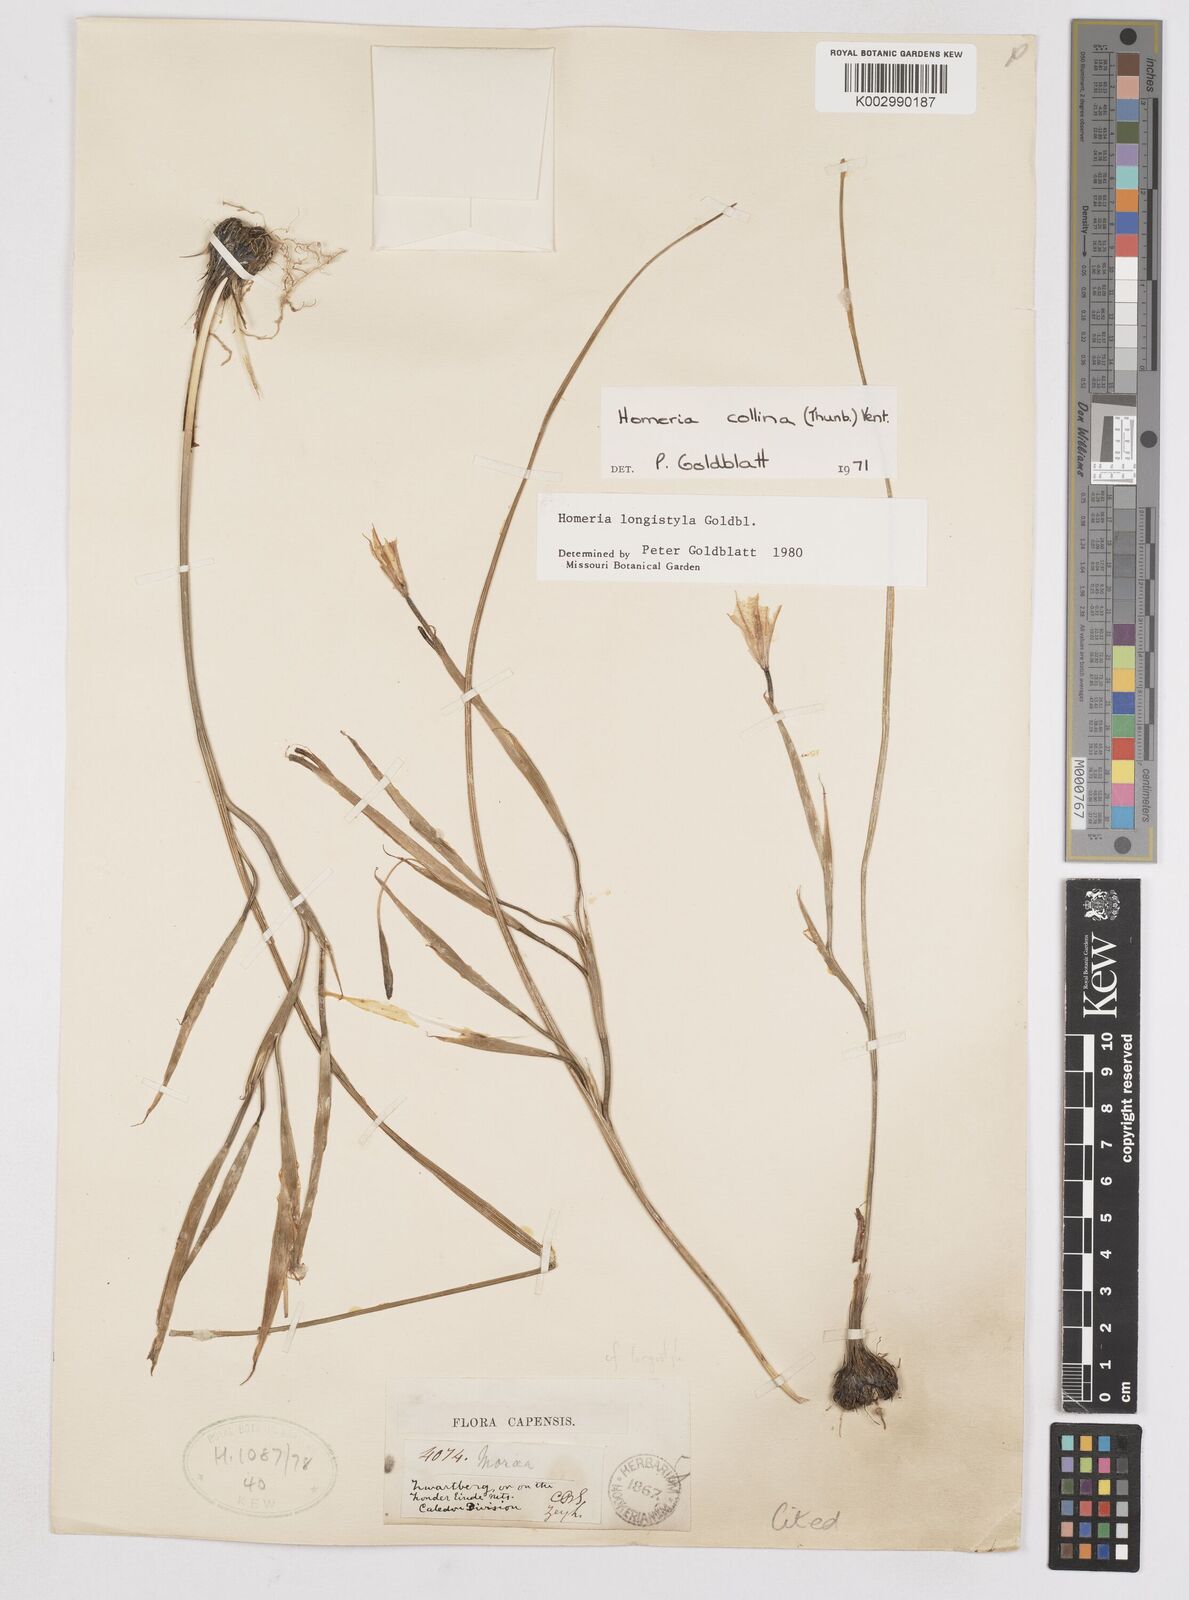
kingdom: Plantae
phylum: Tracheophyta
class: Liliopsida
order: Asparagales
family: Iridaceae
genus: Moraea
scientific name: Moraea longistyla
